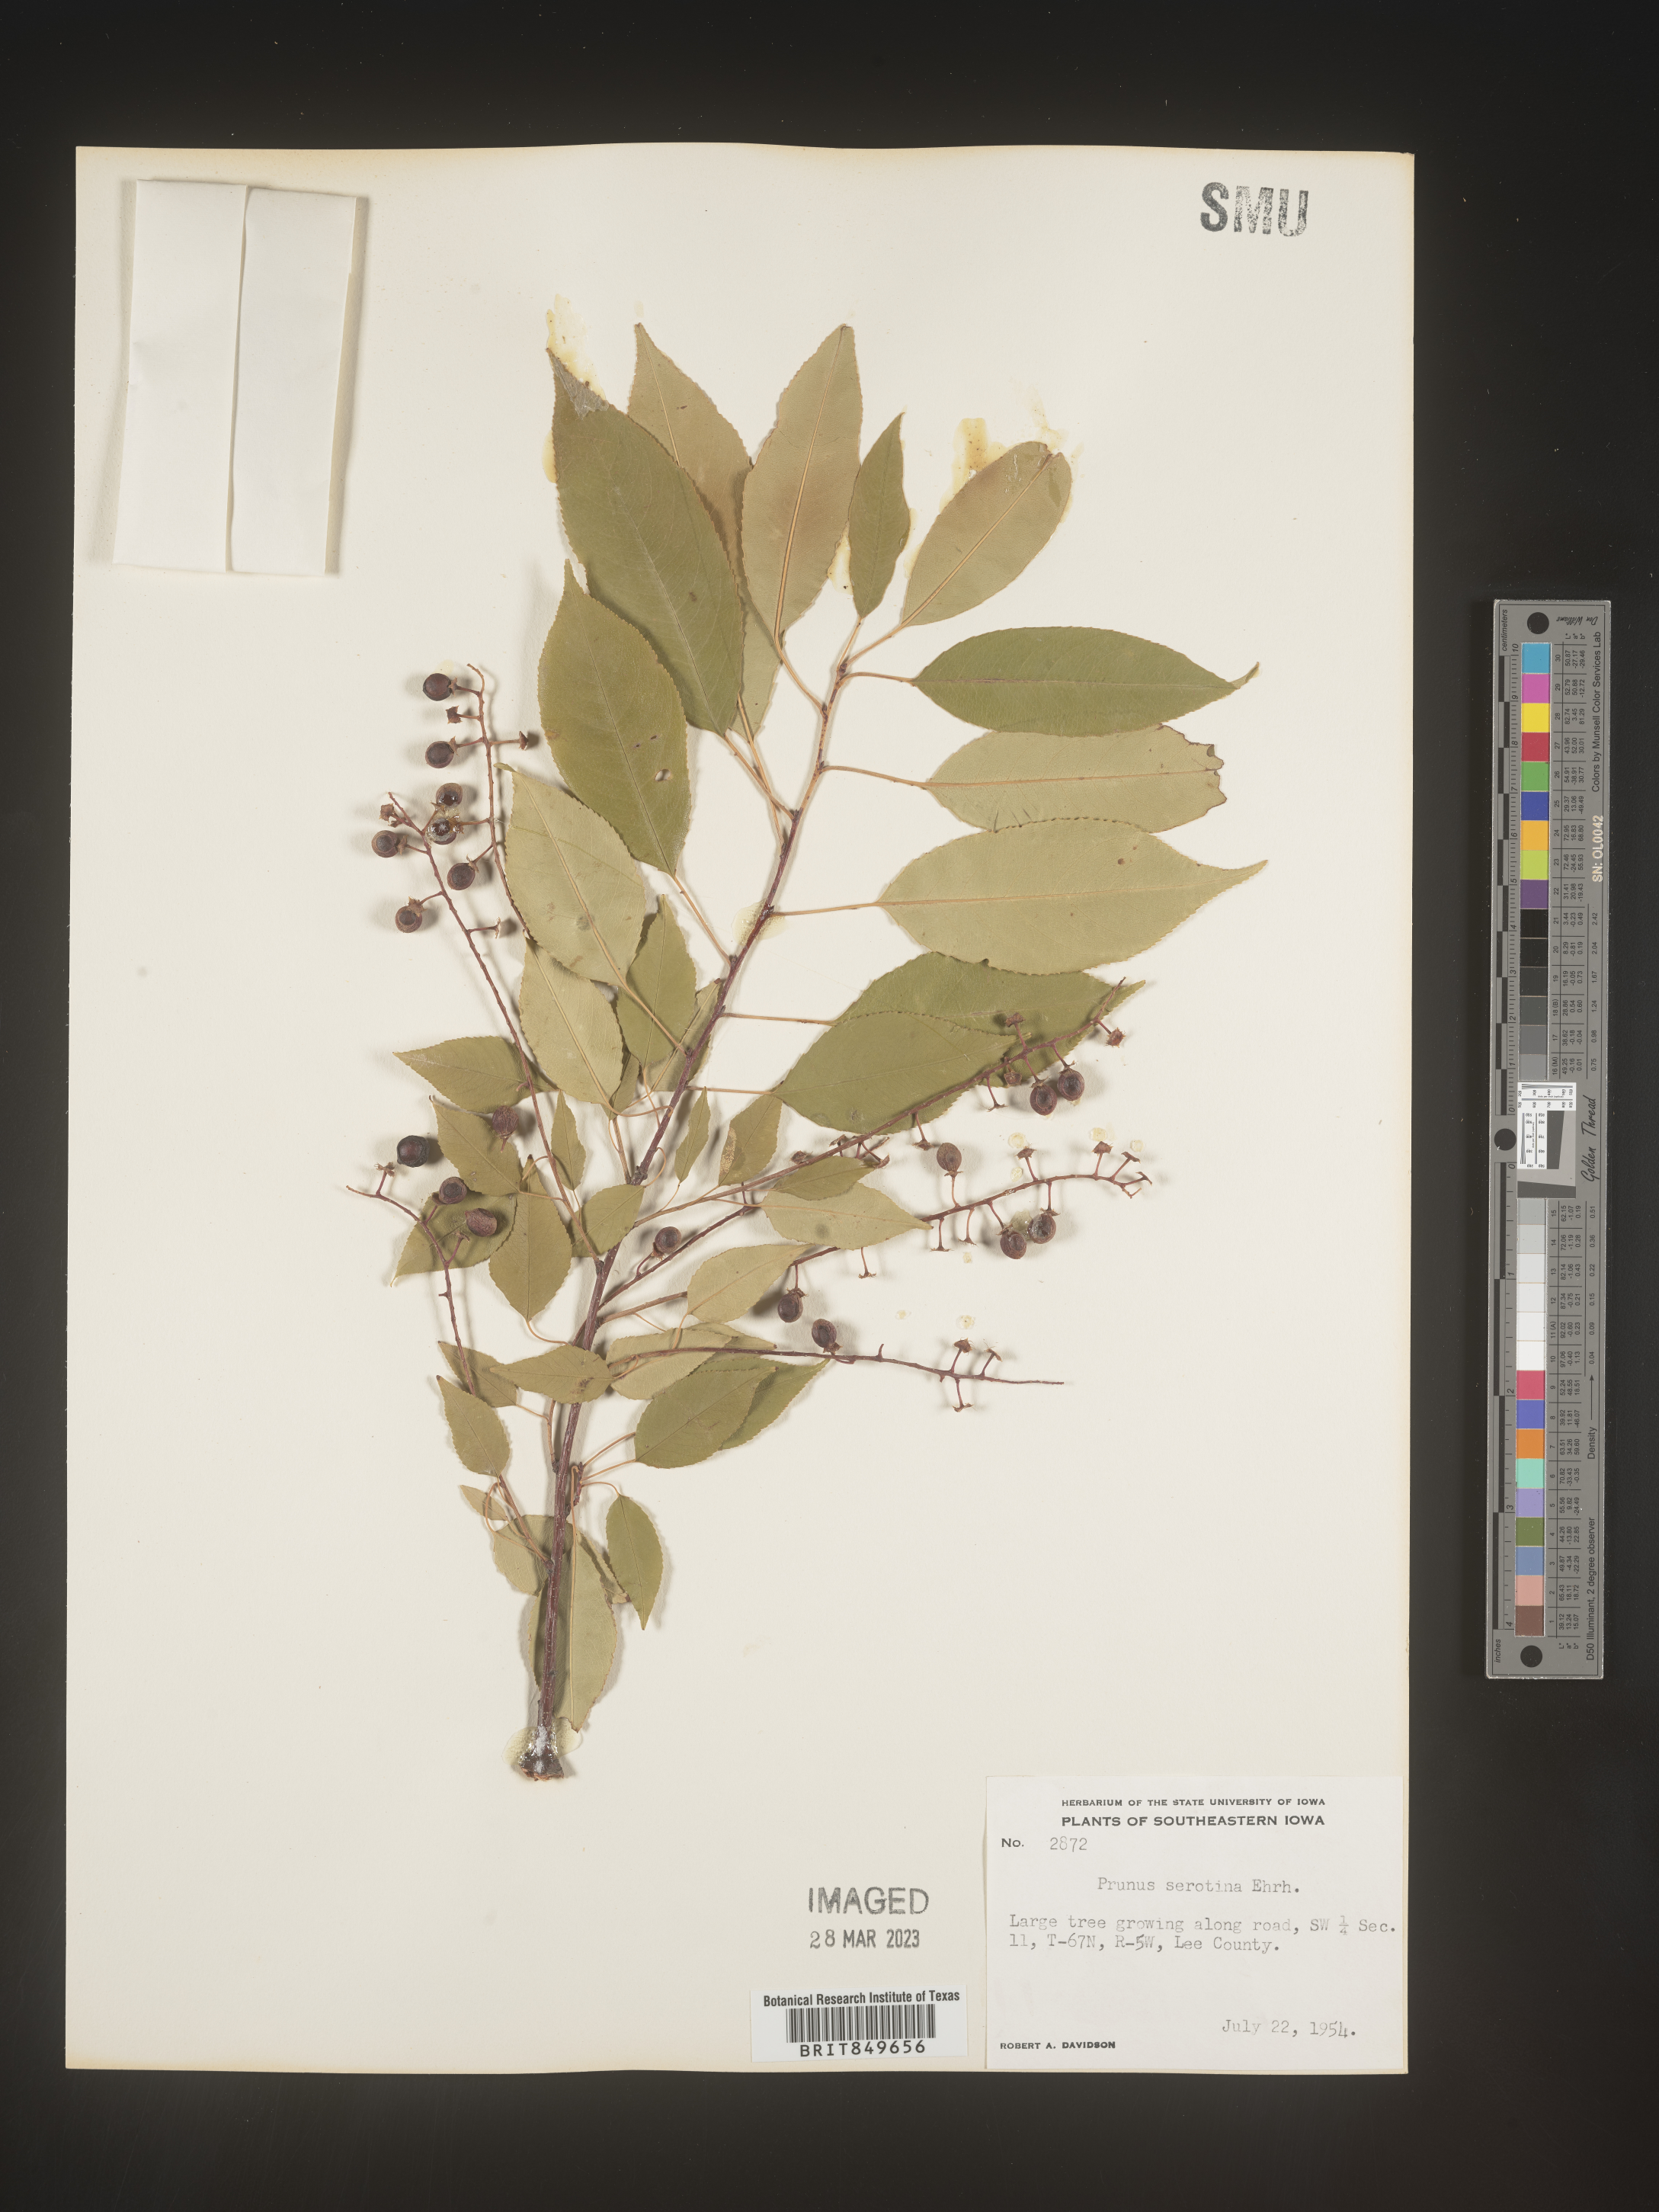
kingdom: Plantae
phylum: Tracheophyta
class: Magnoliopsida
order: Rosales
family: Rosaceae
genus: Prunus
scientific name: Prunus serotina
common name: Black cherry
